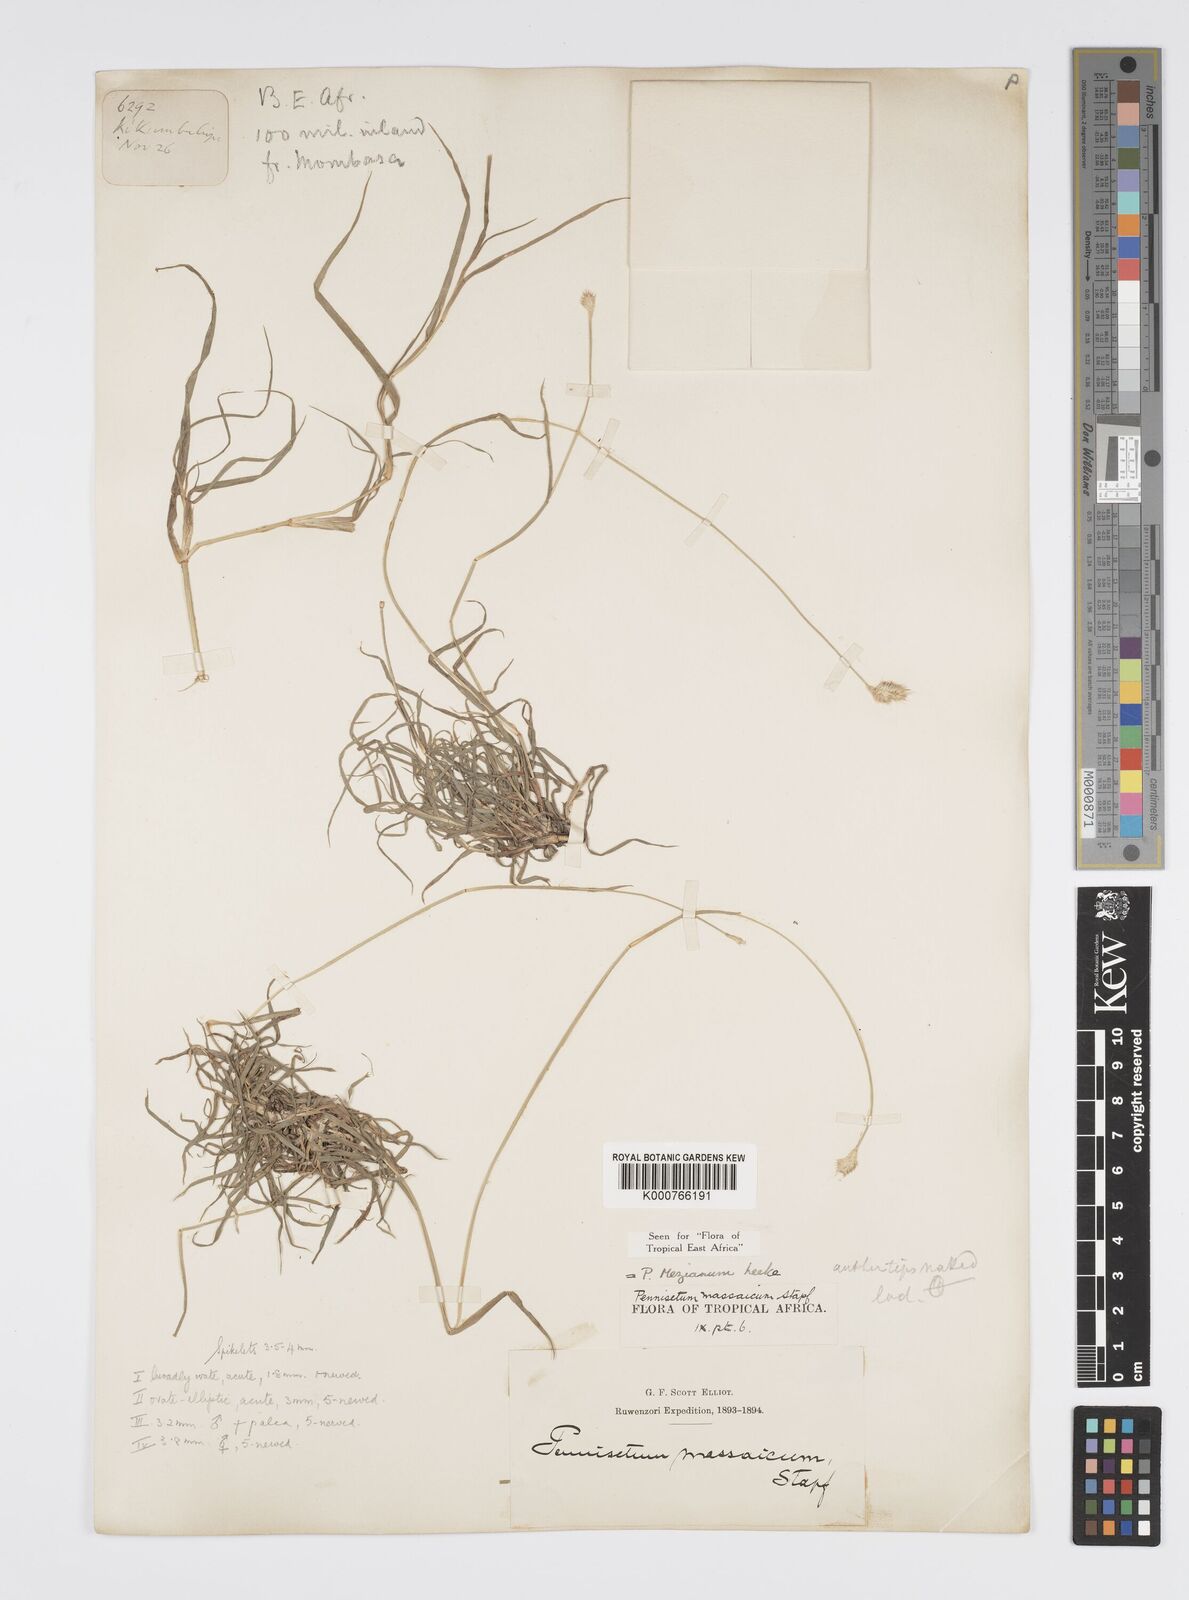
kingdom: Plantae
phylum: Tracheophyta
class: Liliopsida
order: Poales
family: Poaceae
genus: Cenchrus
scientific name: Cenchrus mezianus
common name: Bamboo grass
